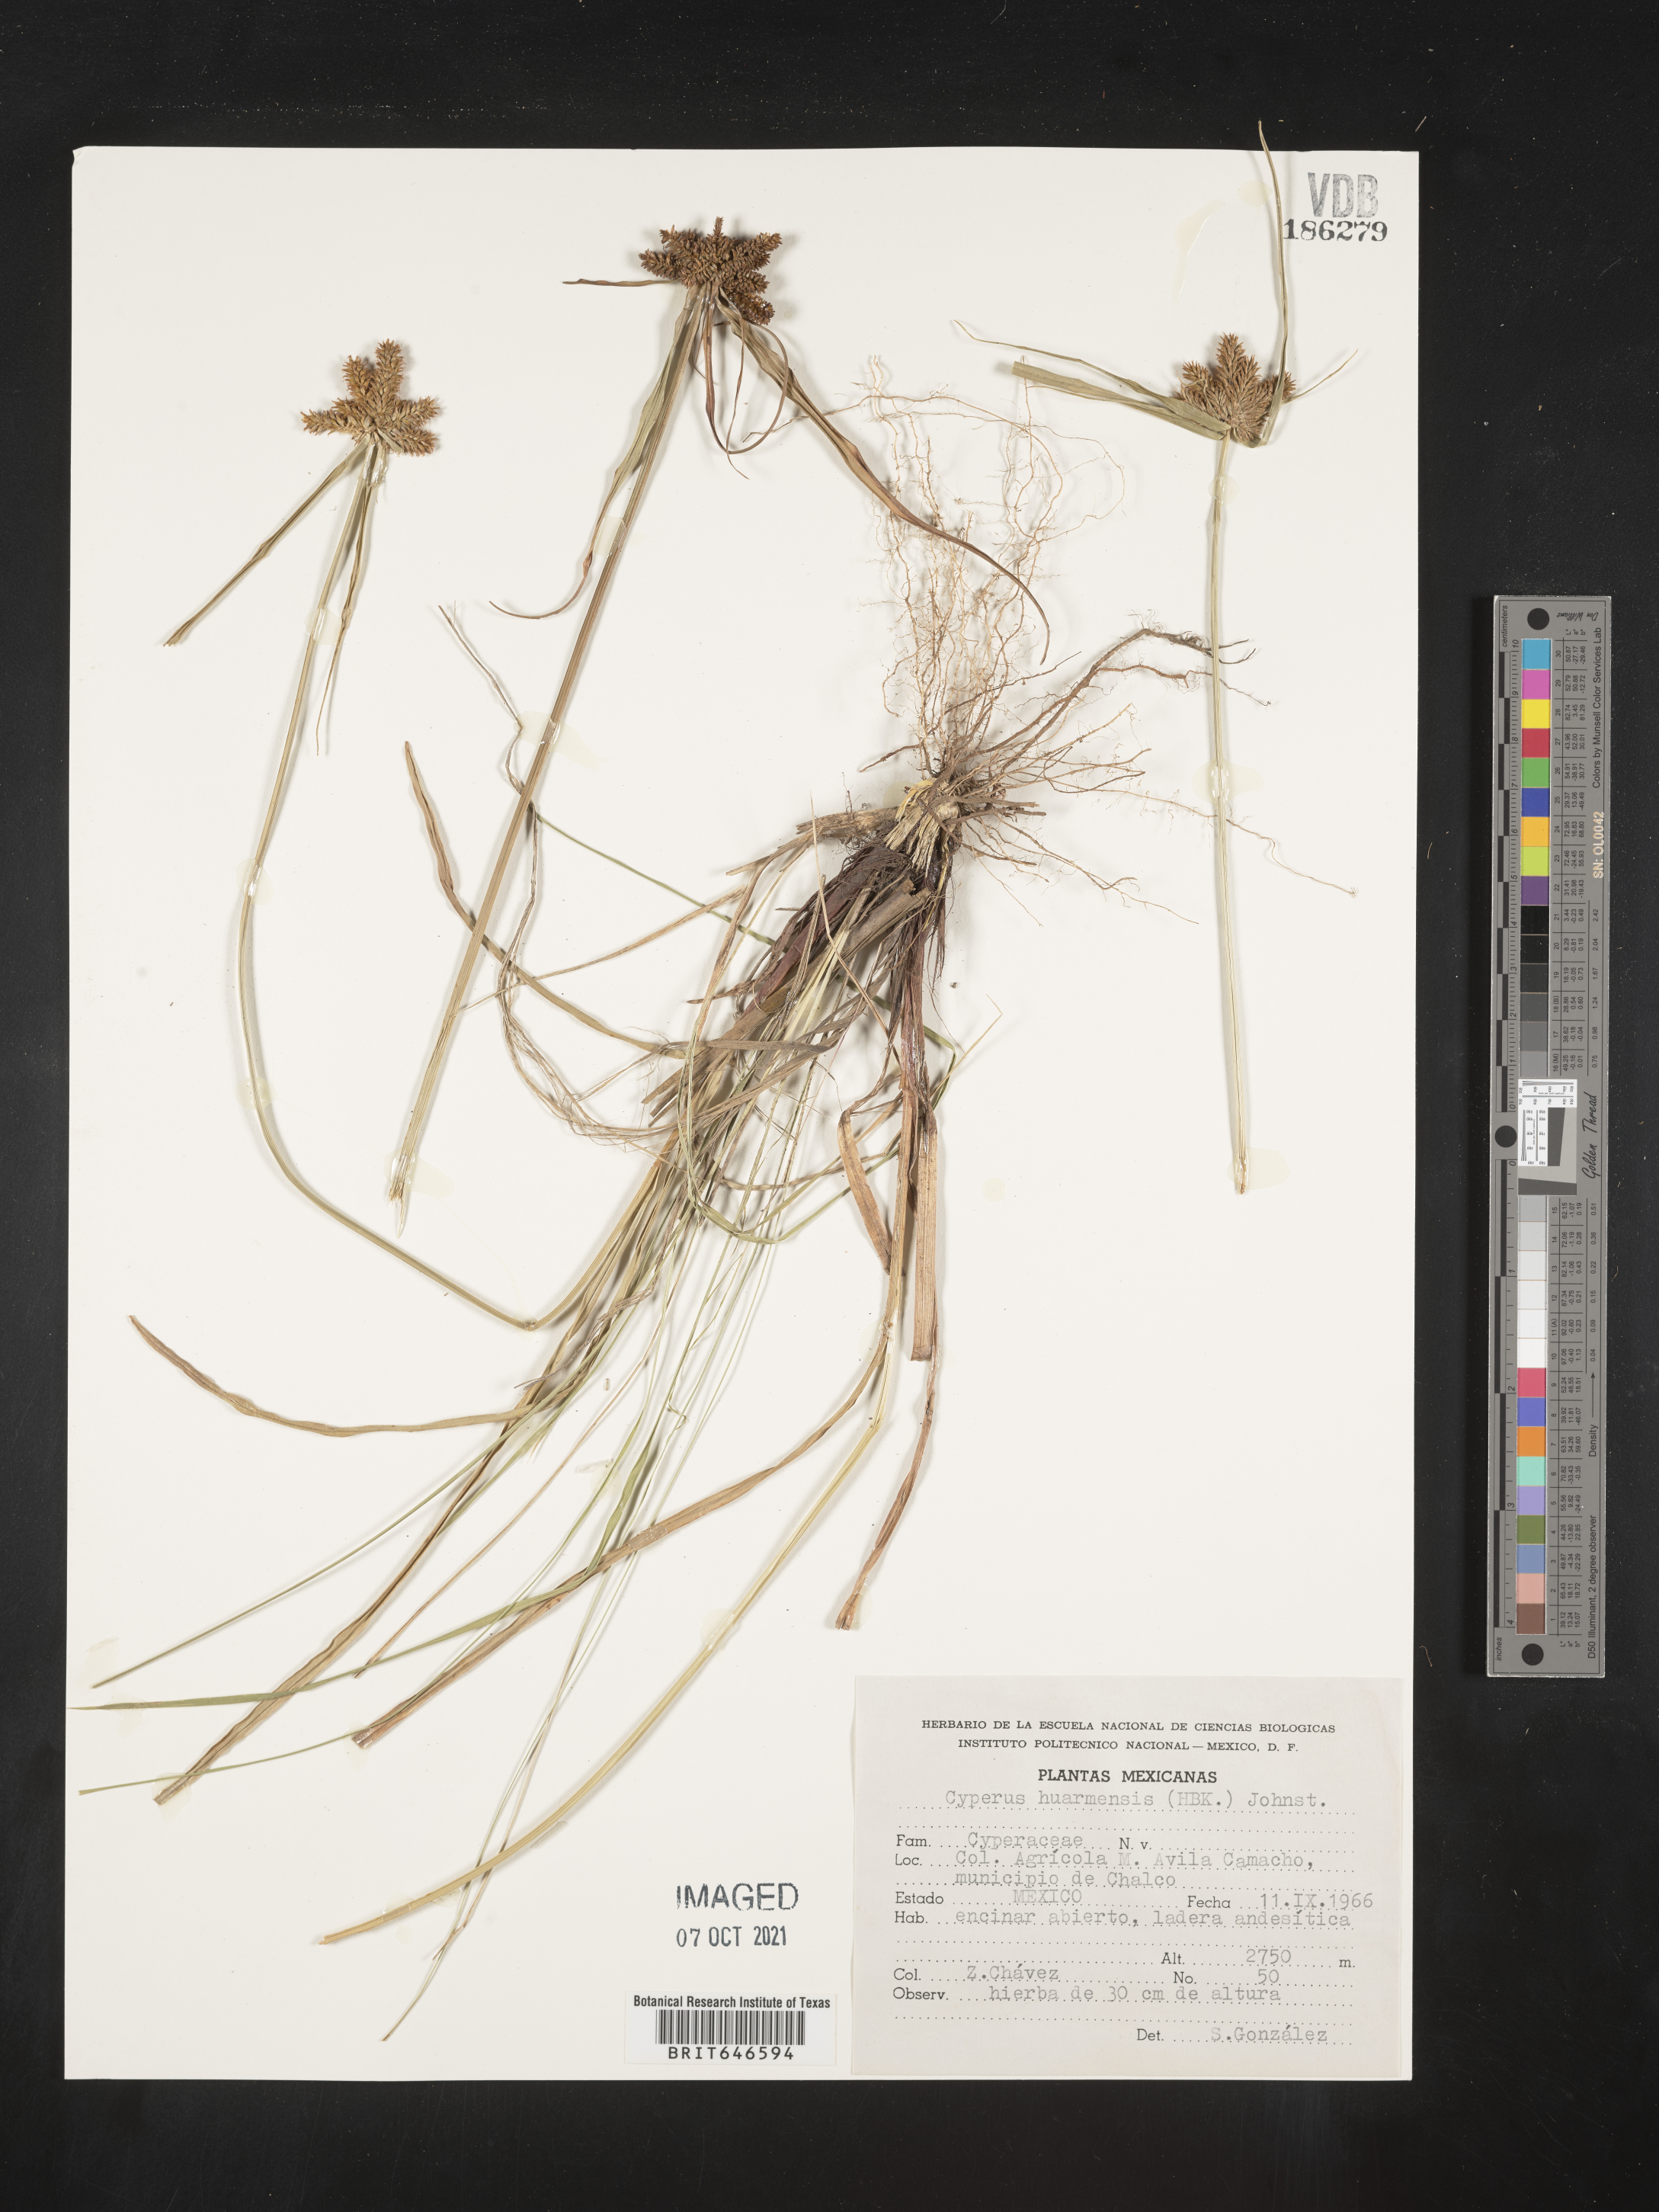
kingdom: Plantae
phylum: Tracheophyta
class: Liliopsida
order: Poales
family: Cyperaceae
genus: Cyperus
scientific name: Cyperus
